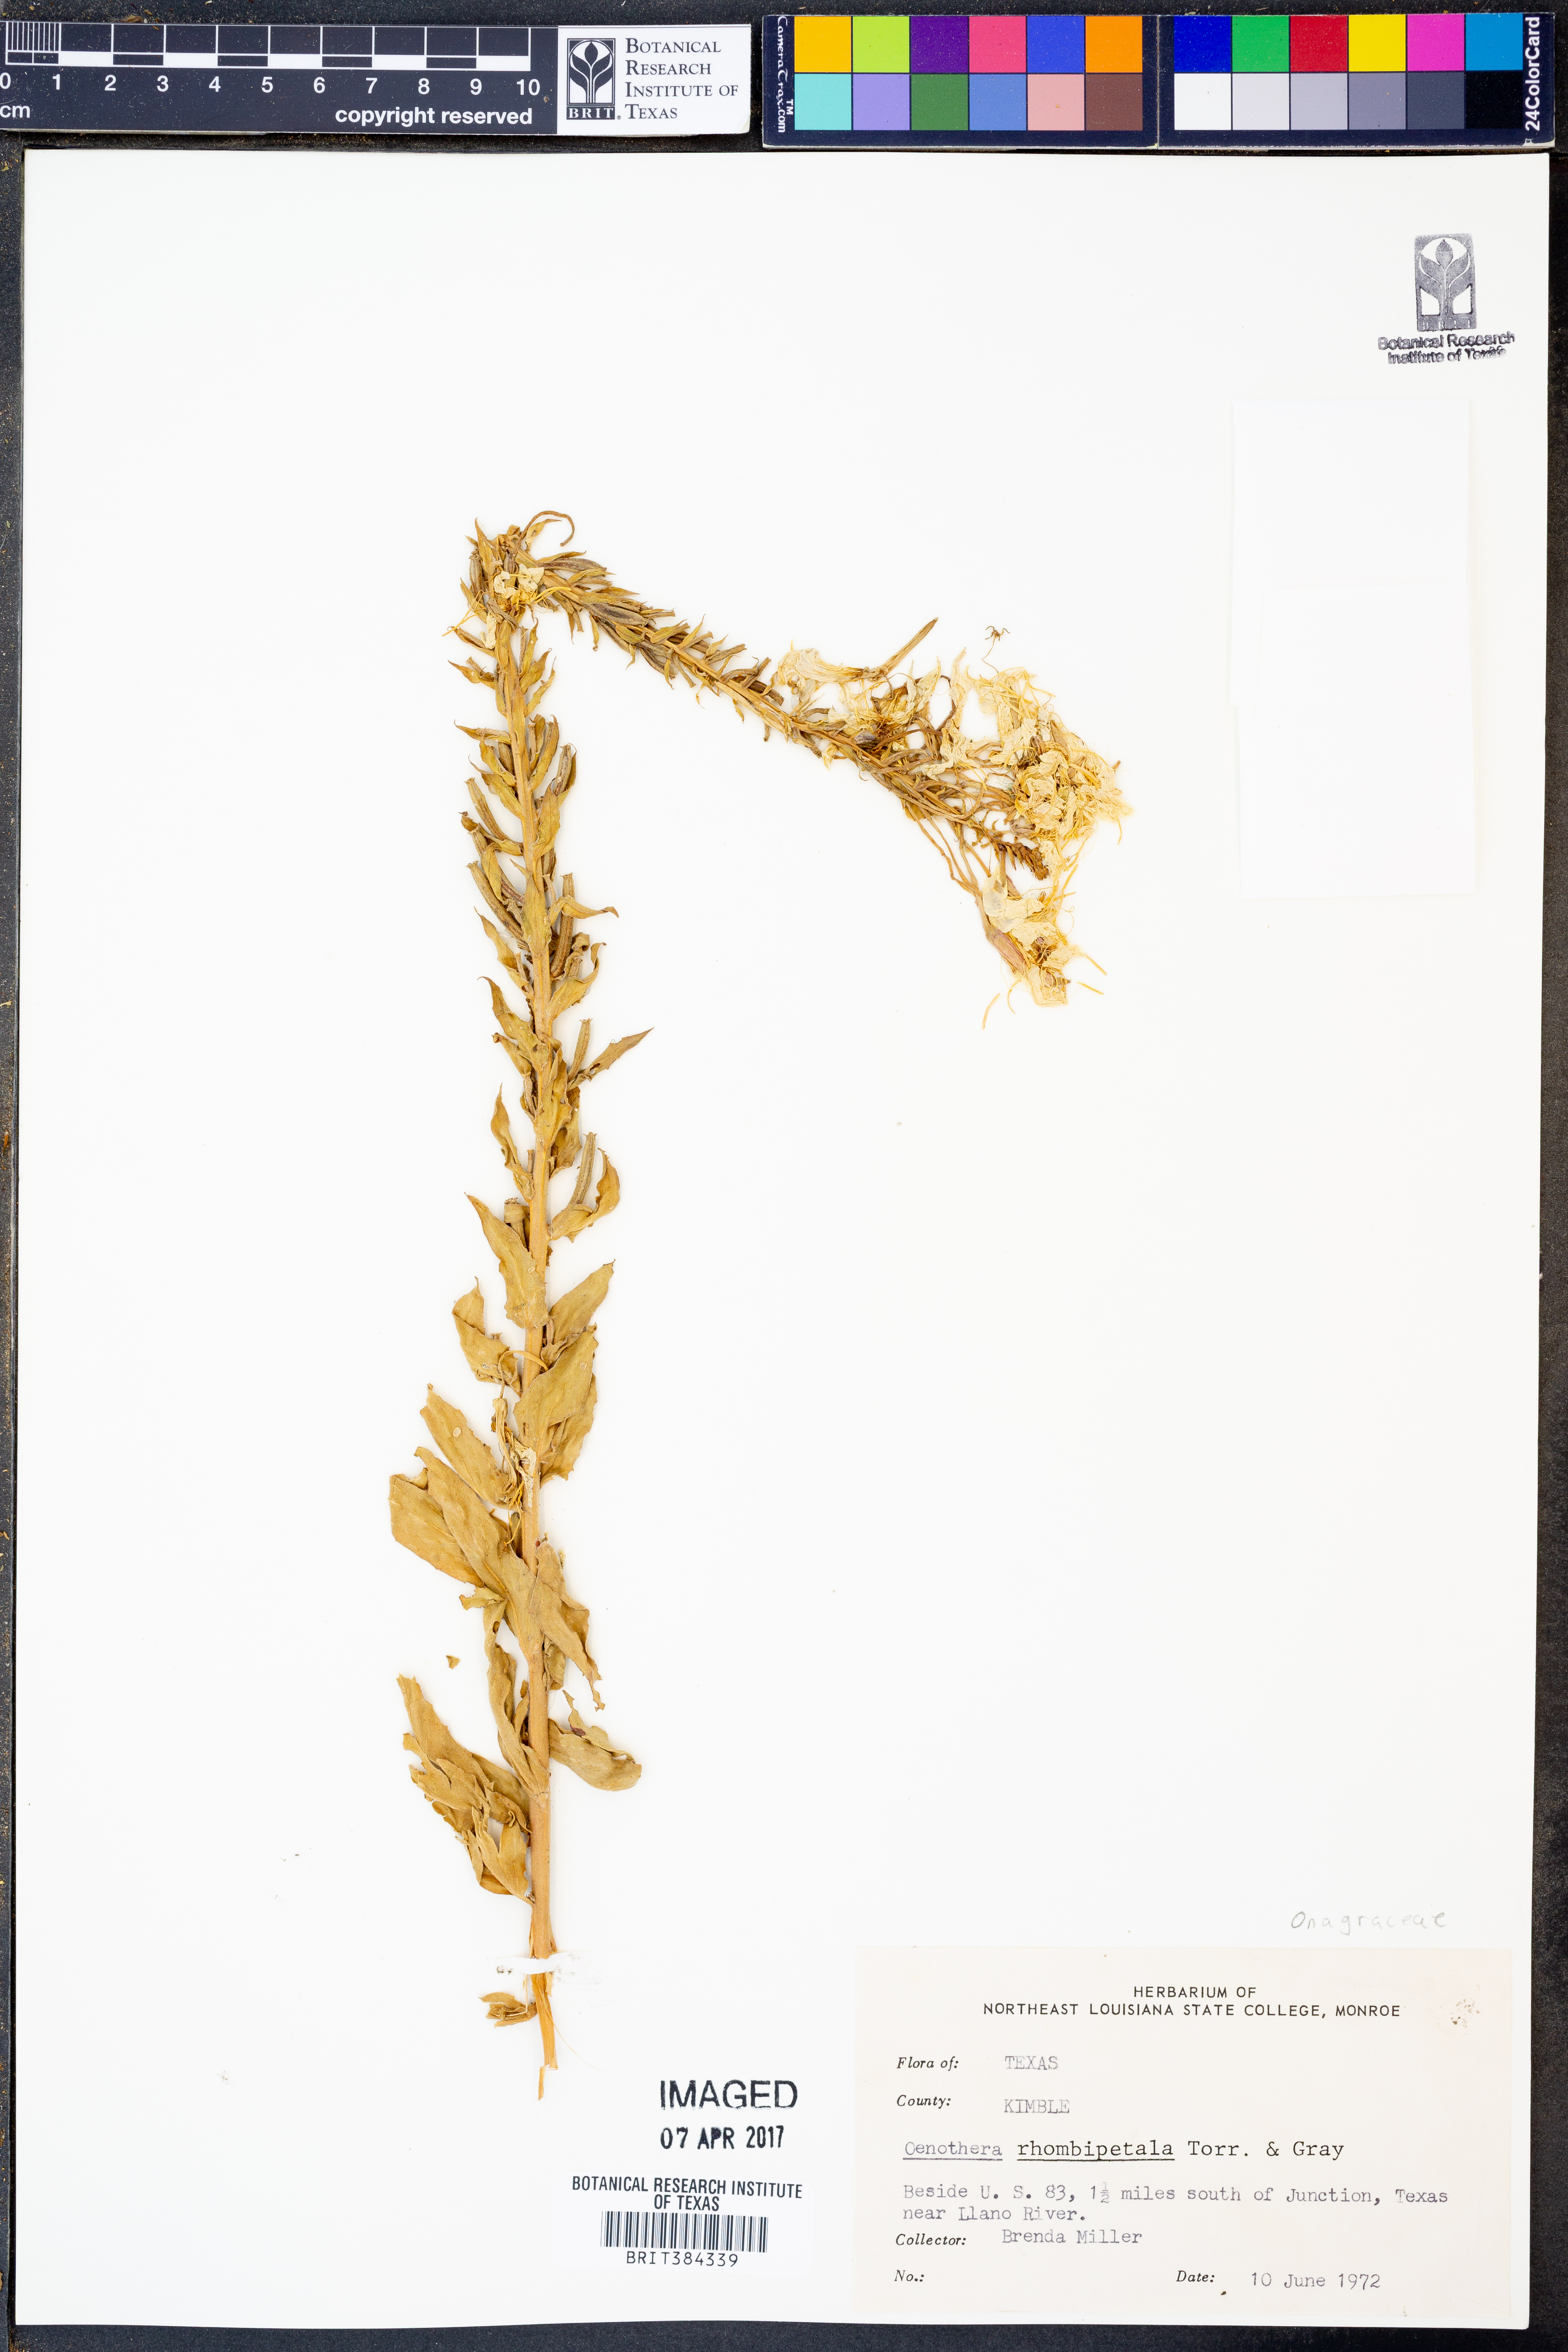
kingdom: Plantae
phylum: Tracheophyta
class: Magnoliopsida
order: Myrtales
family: Onagraceae
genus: Oenothera
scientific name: Oenothera rhombipetala
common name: Four-points evening-primrose
